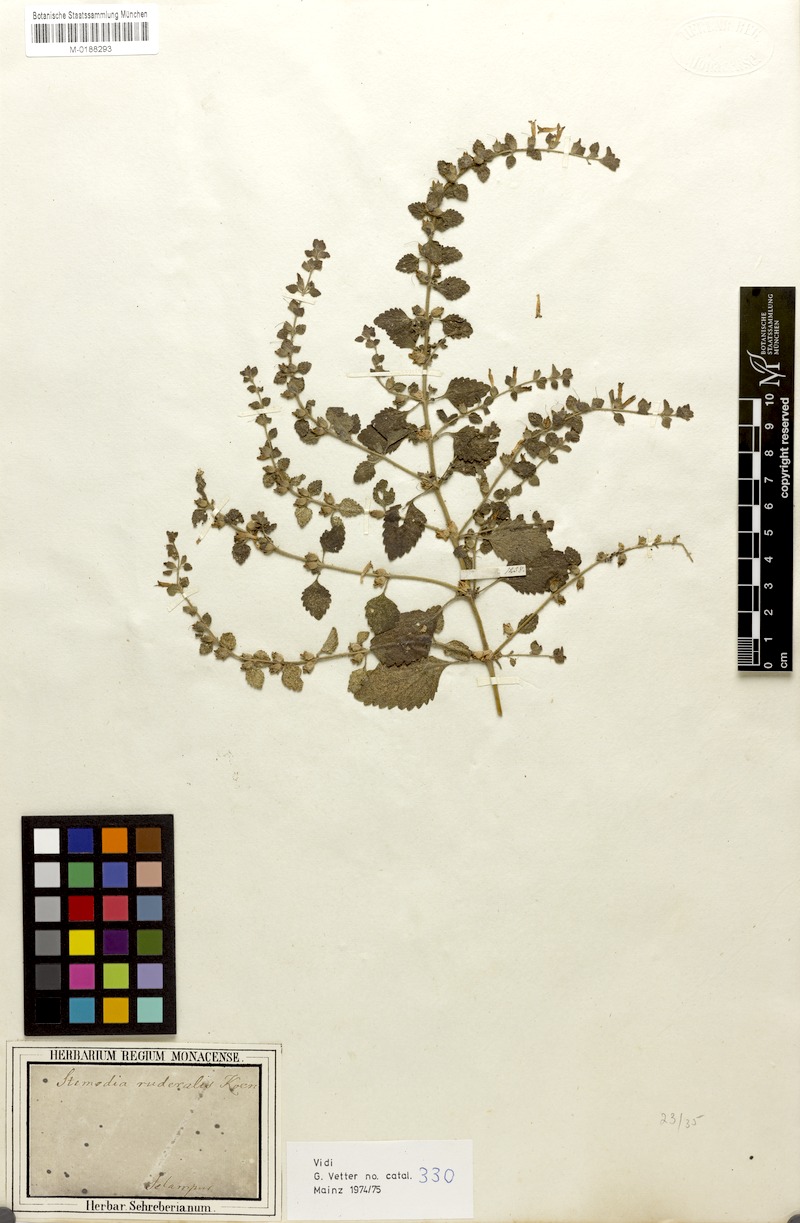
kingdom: Plantae
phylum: Tracheophyta
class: Magnoliopsida
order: Lamiales
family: Orobanchaceae
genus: Lindenbergia
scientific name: Lindenbergia urticifolia
